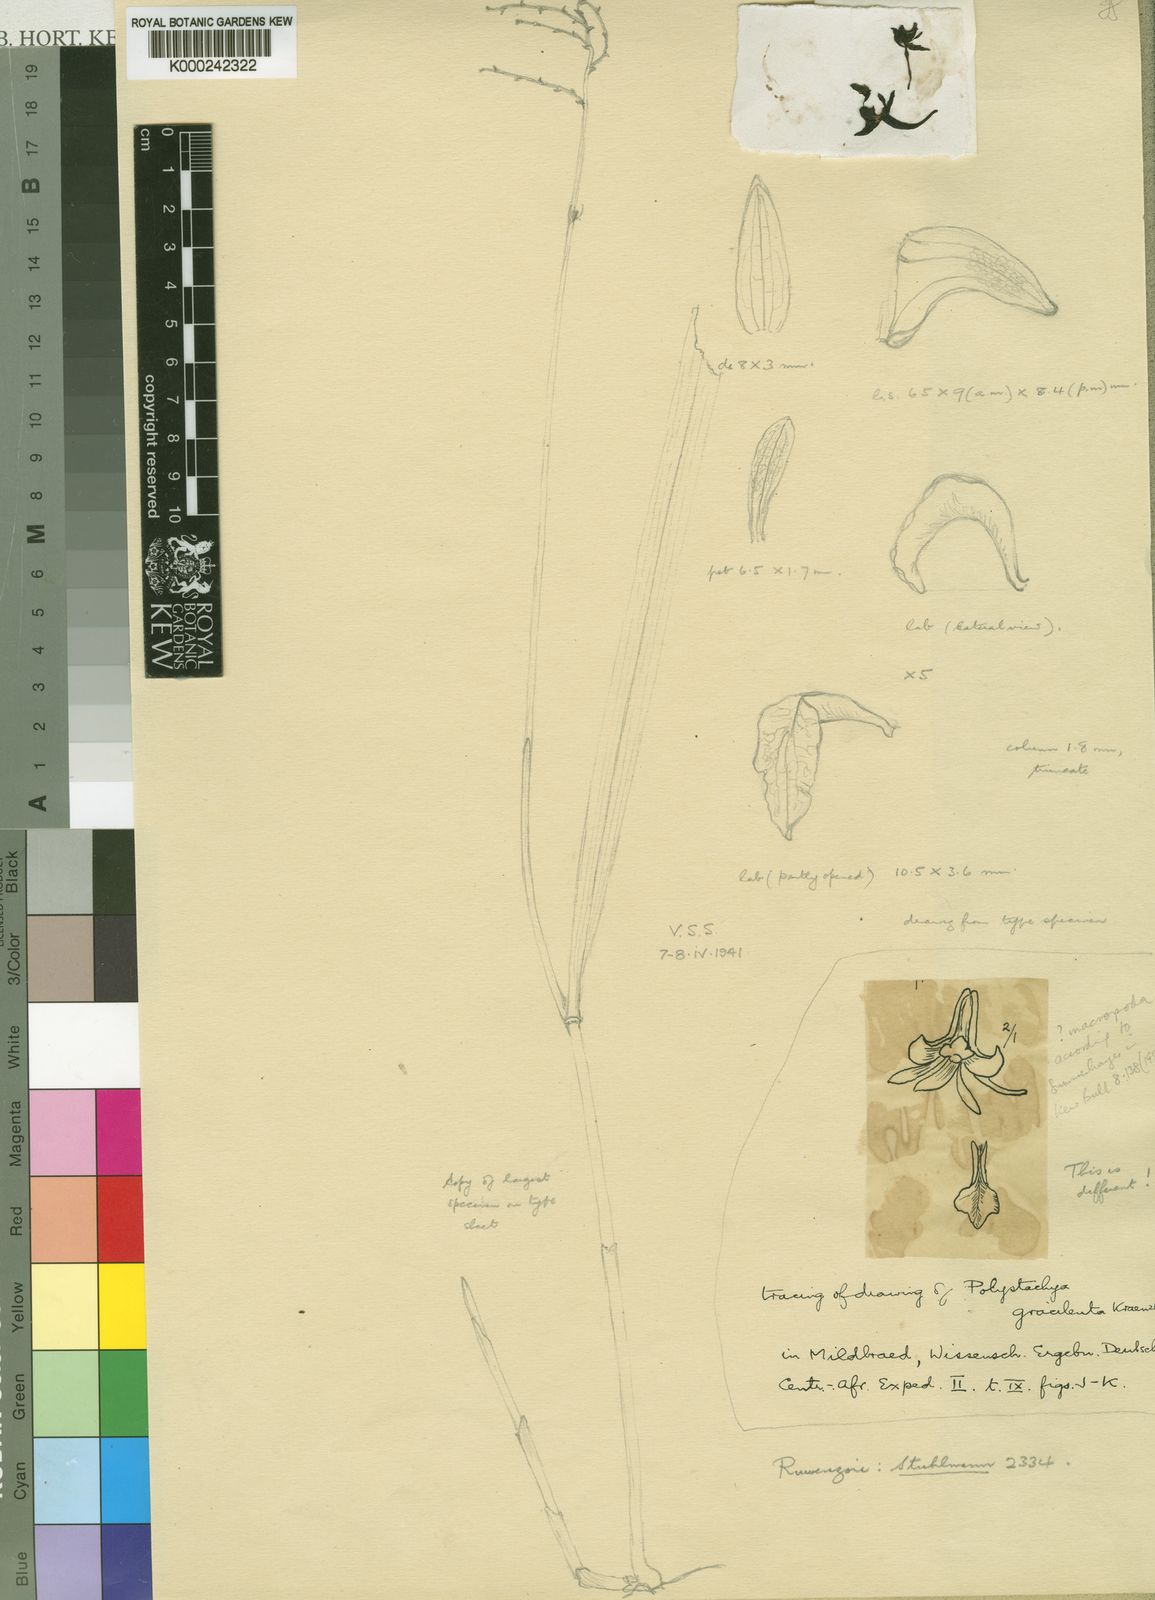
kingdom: Plantae
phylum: Tracheophyta
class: Liliopsida
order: Asparagales
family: Orchidaceae
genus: Polystachya
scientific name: Polystachya gracilenta
